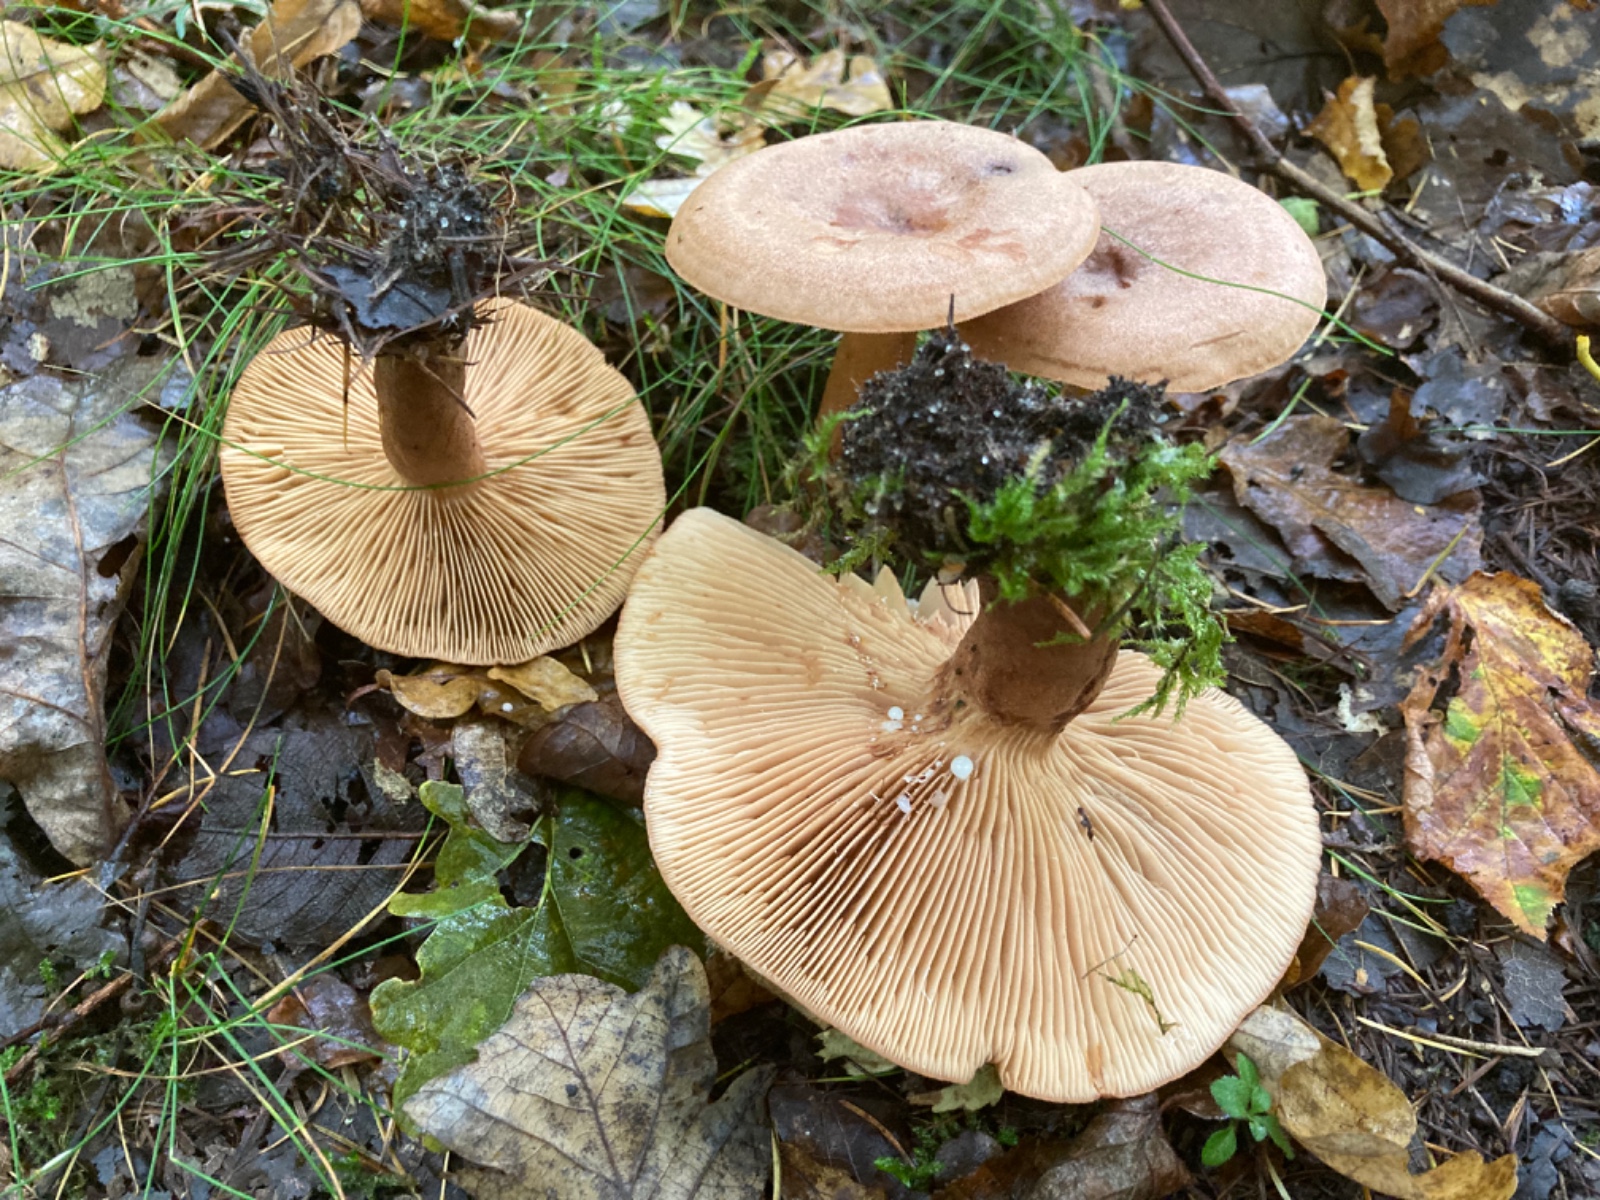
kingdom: Fungi
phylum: Basidiomycota
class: Agaricomycetes
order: Russulales
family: Russulaceae
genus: Lactarius
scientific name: Lactarius quietus
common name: ege-mælkehat
